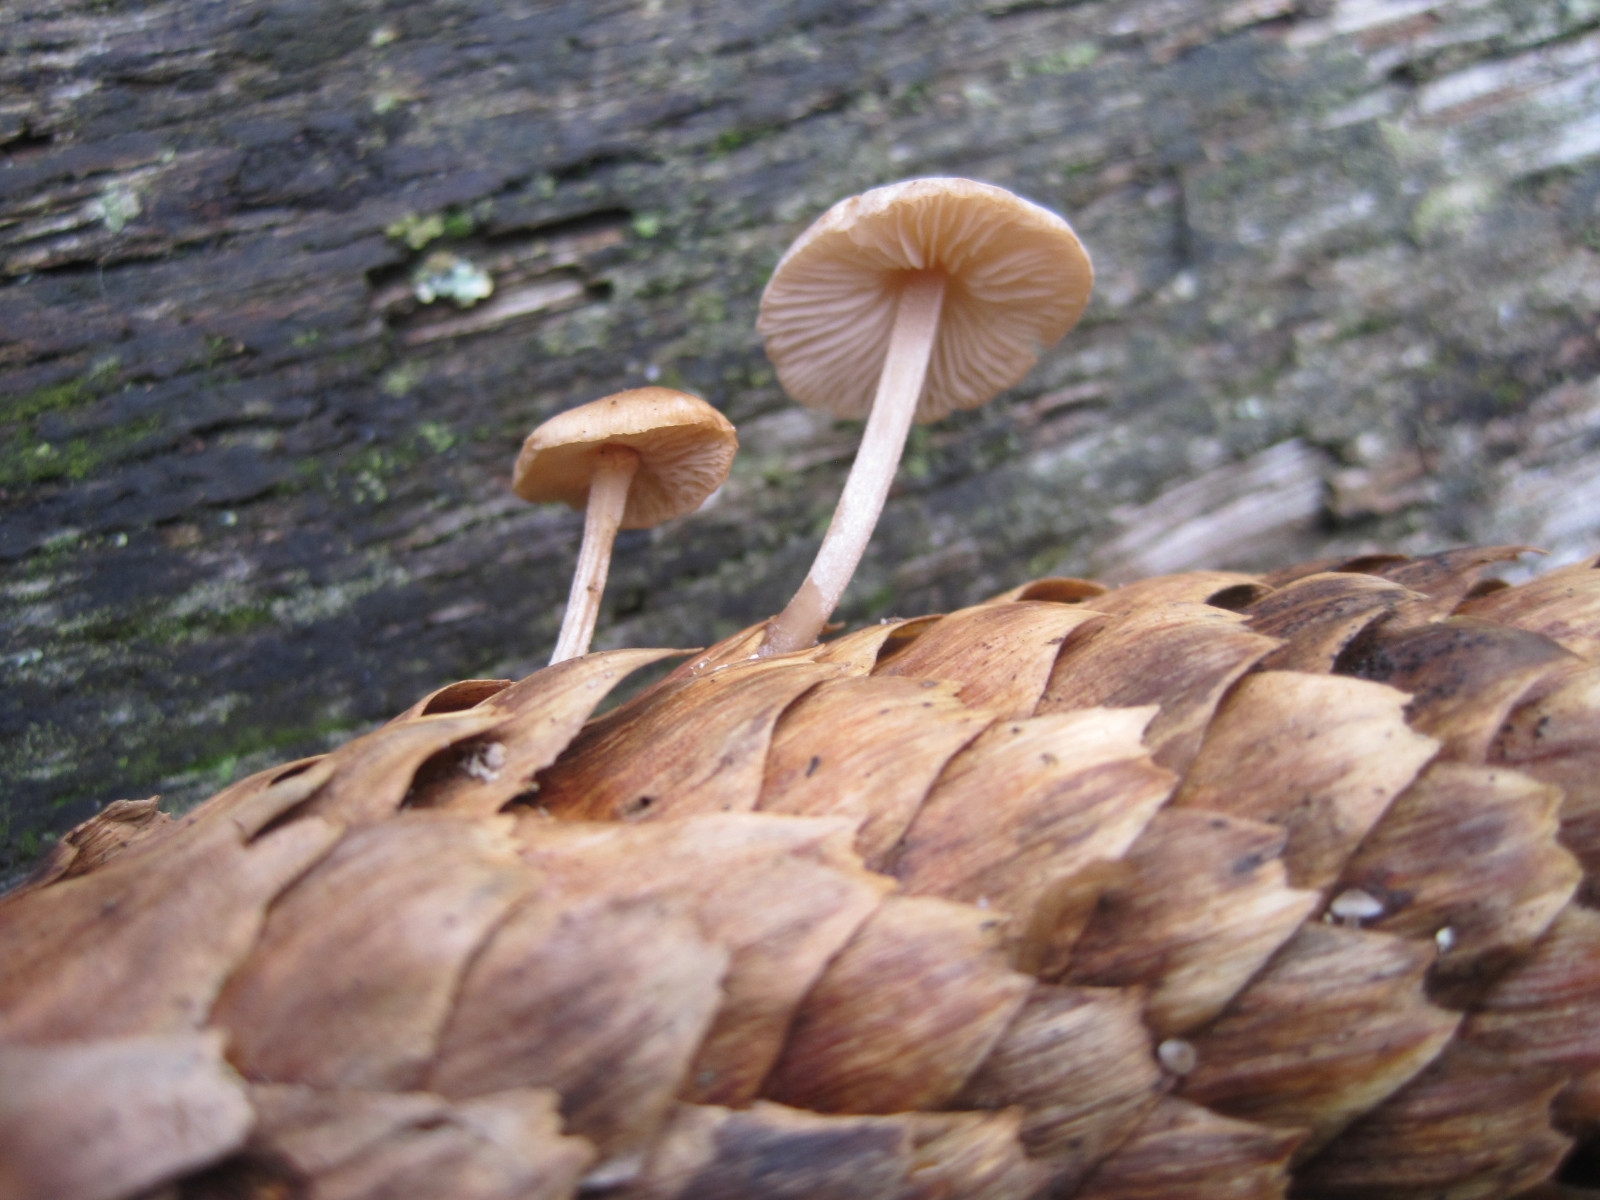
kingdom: Fungi
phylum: Basidiomycota
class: Agaricomycetes
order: Agaricales
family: Marasmiaceae
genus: Baeospora
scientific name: Baeospora myosura
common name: koglebruskhat
